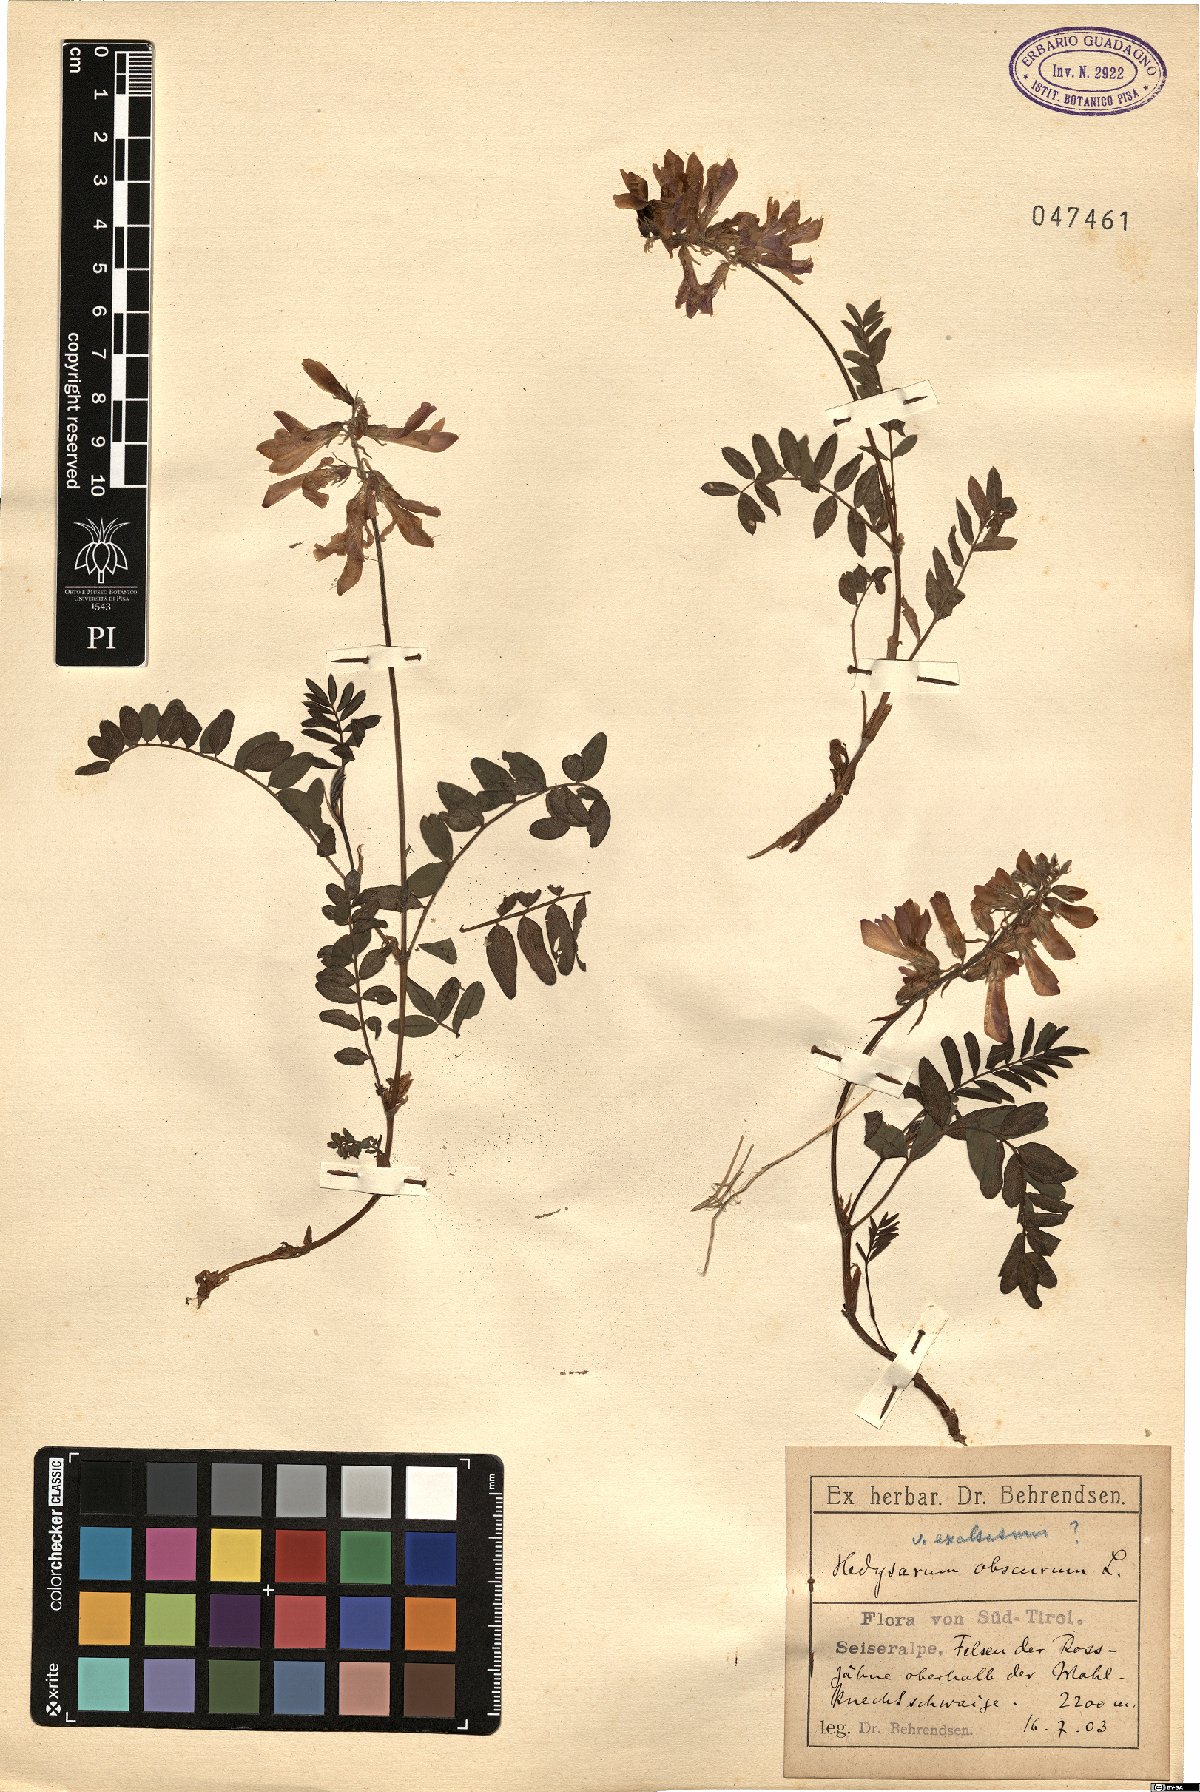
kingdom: Plantae
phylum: Tracheophyta
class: Magnoliopsida
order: Fabales
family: Fabaceae
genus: Hedysarum
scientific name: Hedysarum hedysaroides
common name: Alpine french-honeysuckle
